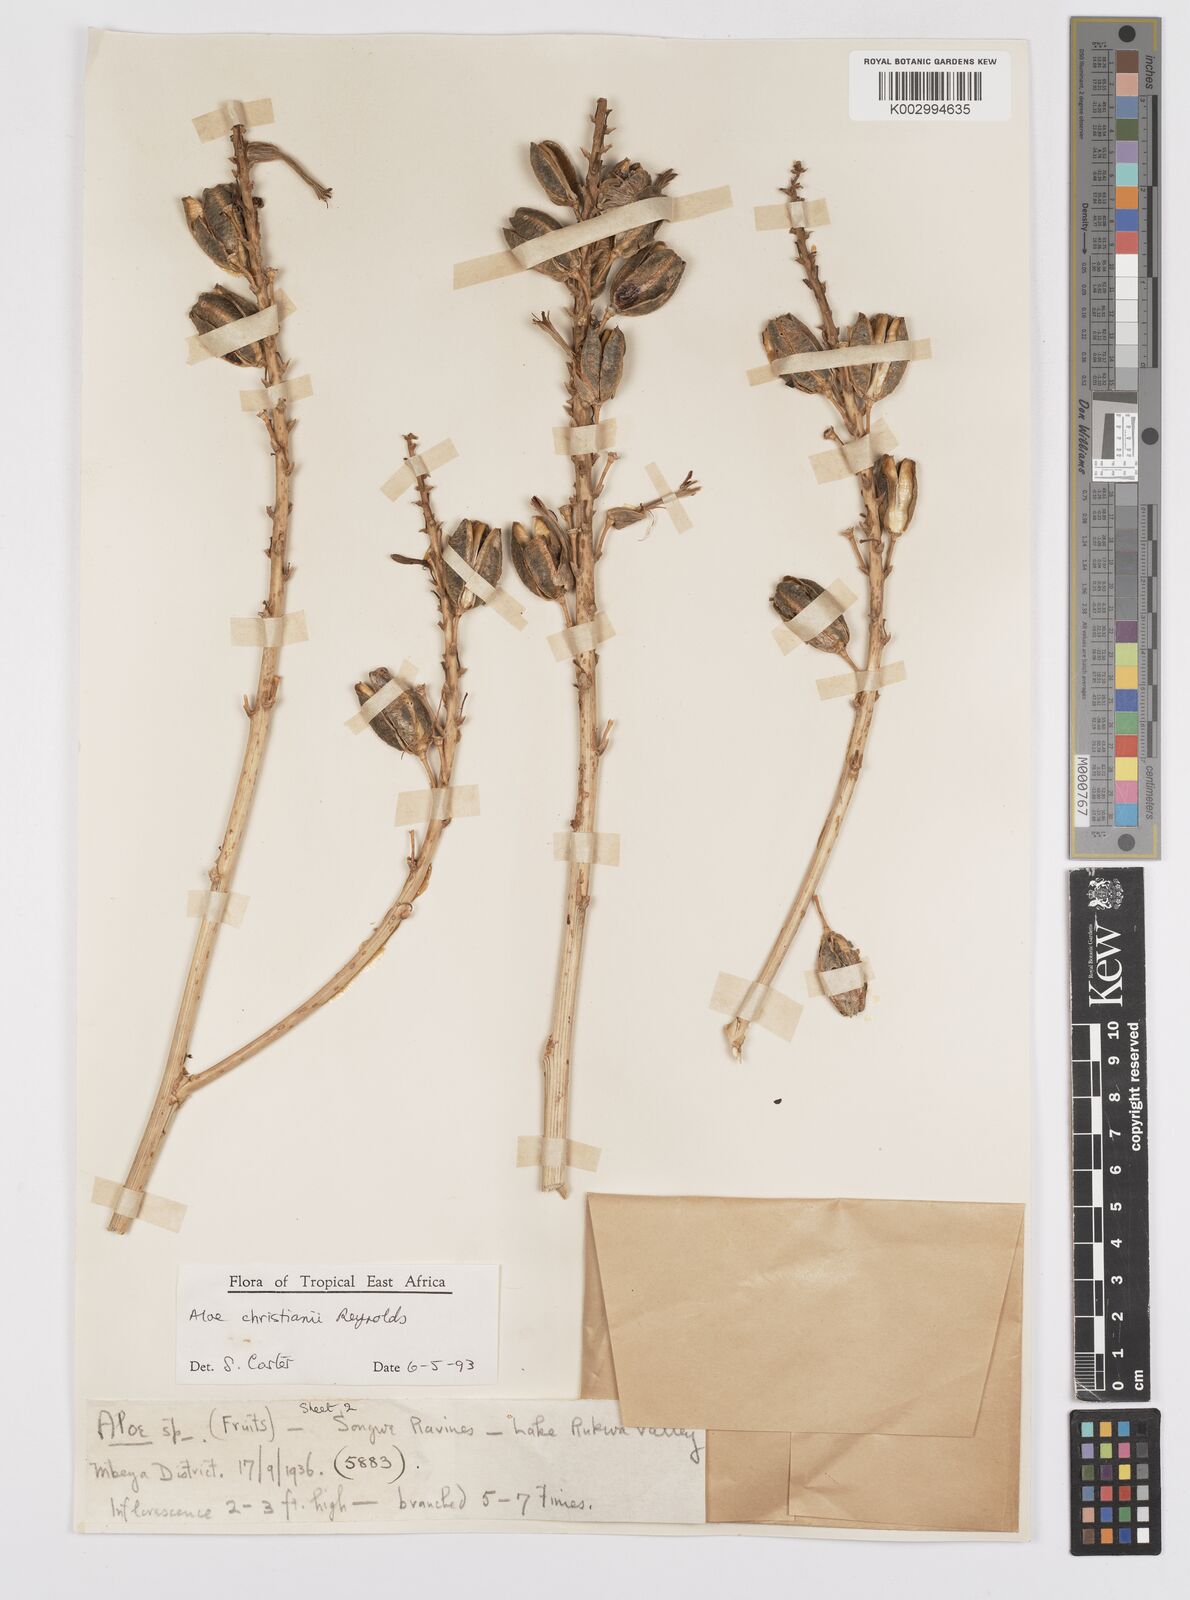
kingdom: Plantae
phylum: Tracheophyta
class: Liliopsida
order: Asparagales
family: Asphodelaceae
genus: Aloe
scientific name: Aloe christianii
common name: Basil christian's aloe
